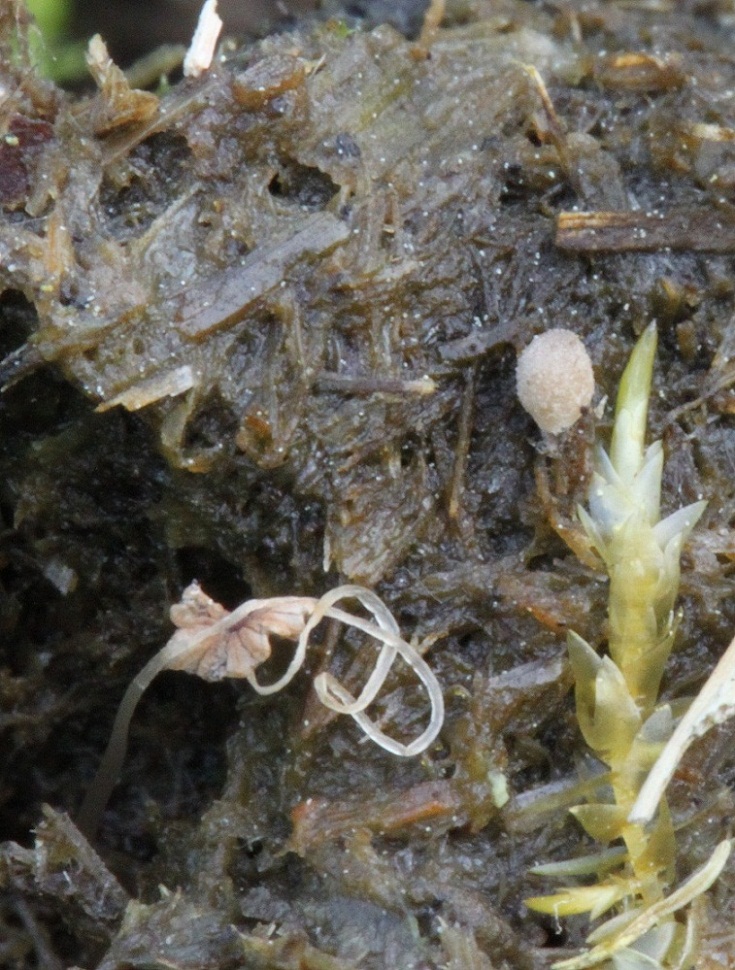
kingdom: Fungi
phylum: Basidiomycota
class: Agaricomycetes
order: Agaricales
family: Psathyrellaceae
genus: Narcissea
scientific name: Narcissea ephemeroides
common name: ring-blækhat
